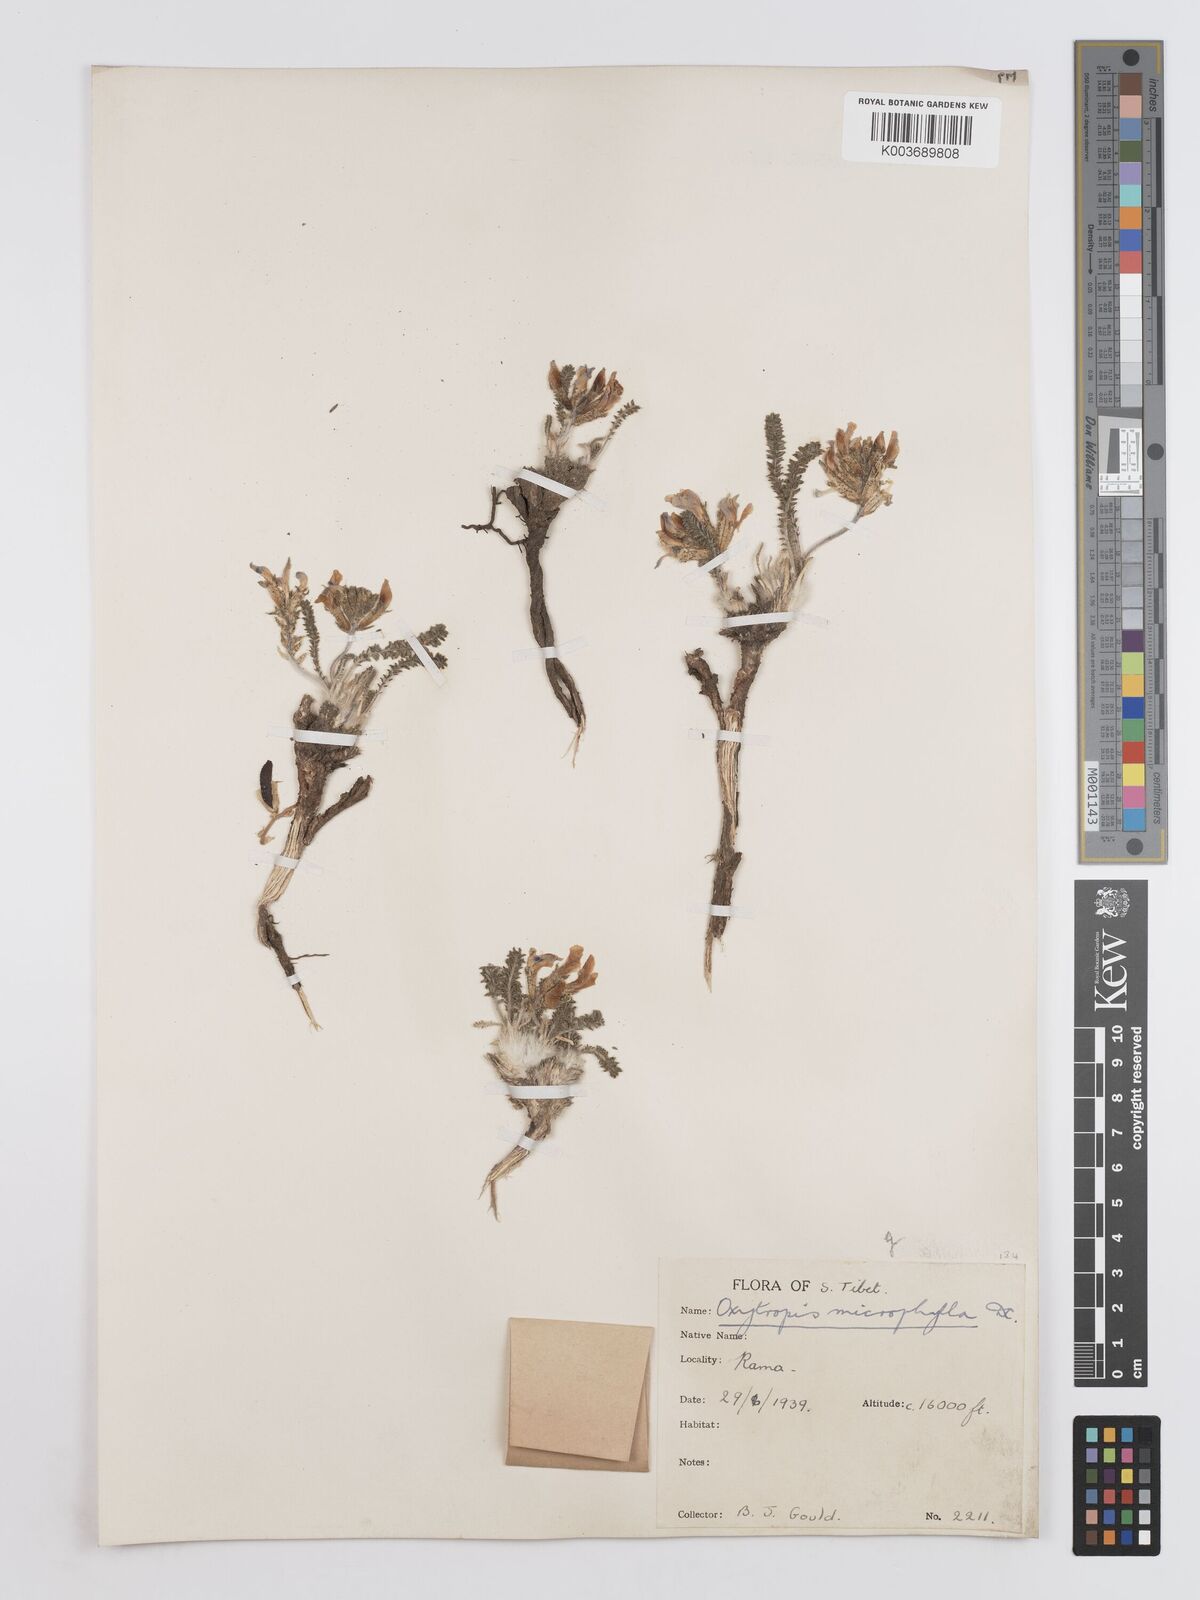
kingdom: Plantae
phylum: Tracheophyta
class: Magnoliopsida
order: Fabales
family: Fabaceae
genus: Oxytropis
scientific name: Oxytropis microphylla
